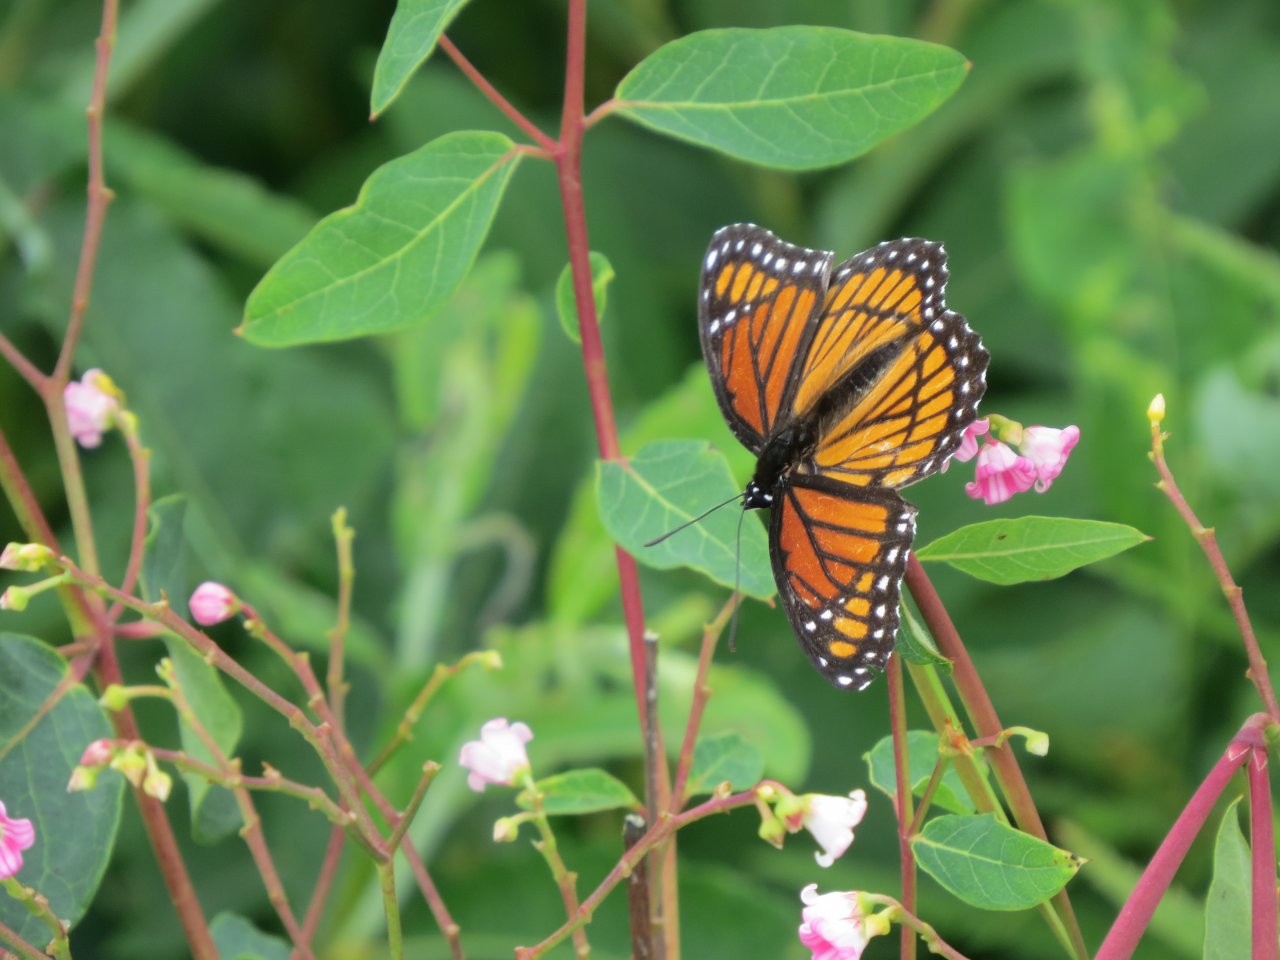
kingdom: Animalia
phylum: Arthropoda
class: Insecta
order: Lepidoptera
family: Nymphalidae
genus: Limenitis
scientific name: Limenitis archippus
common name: Viceroy
